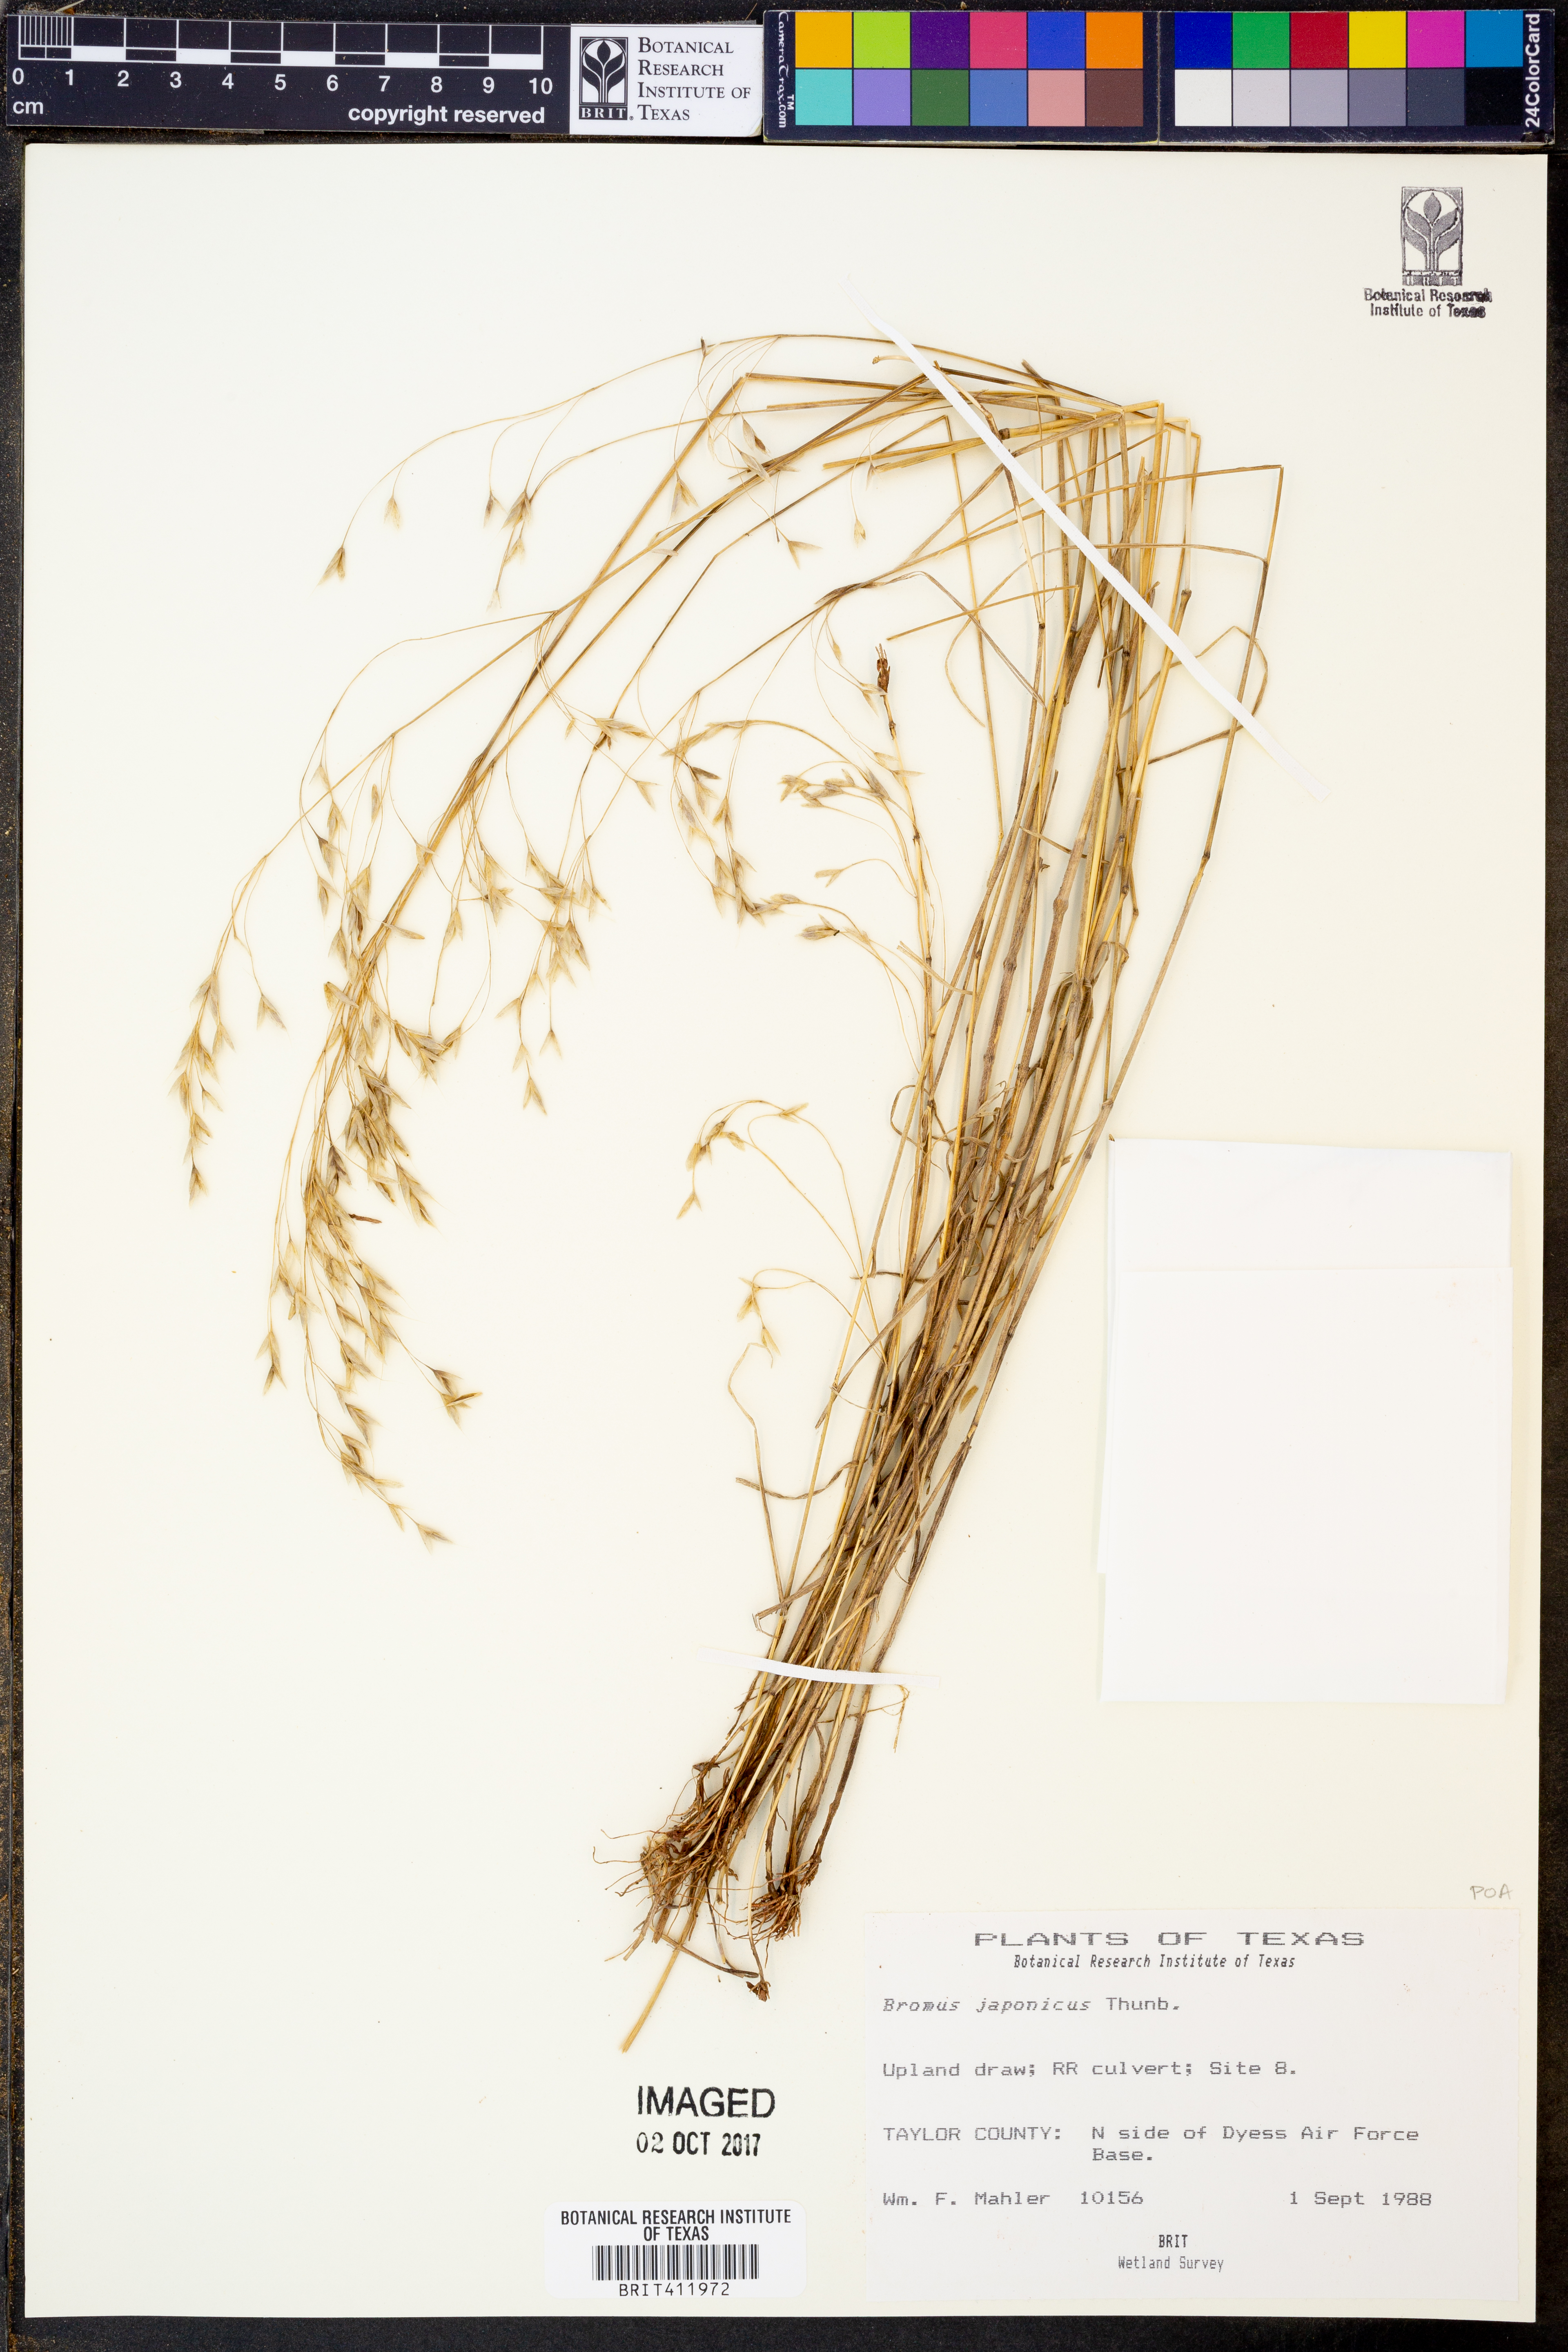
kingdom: Plantae
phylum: Tracheophyta
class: Liliopsida
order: Poales
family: Poaceae
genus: Bromus
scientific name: Bromus japonicus
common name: Japanese brome
